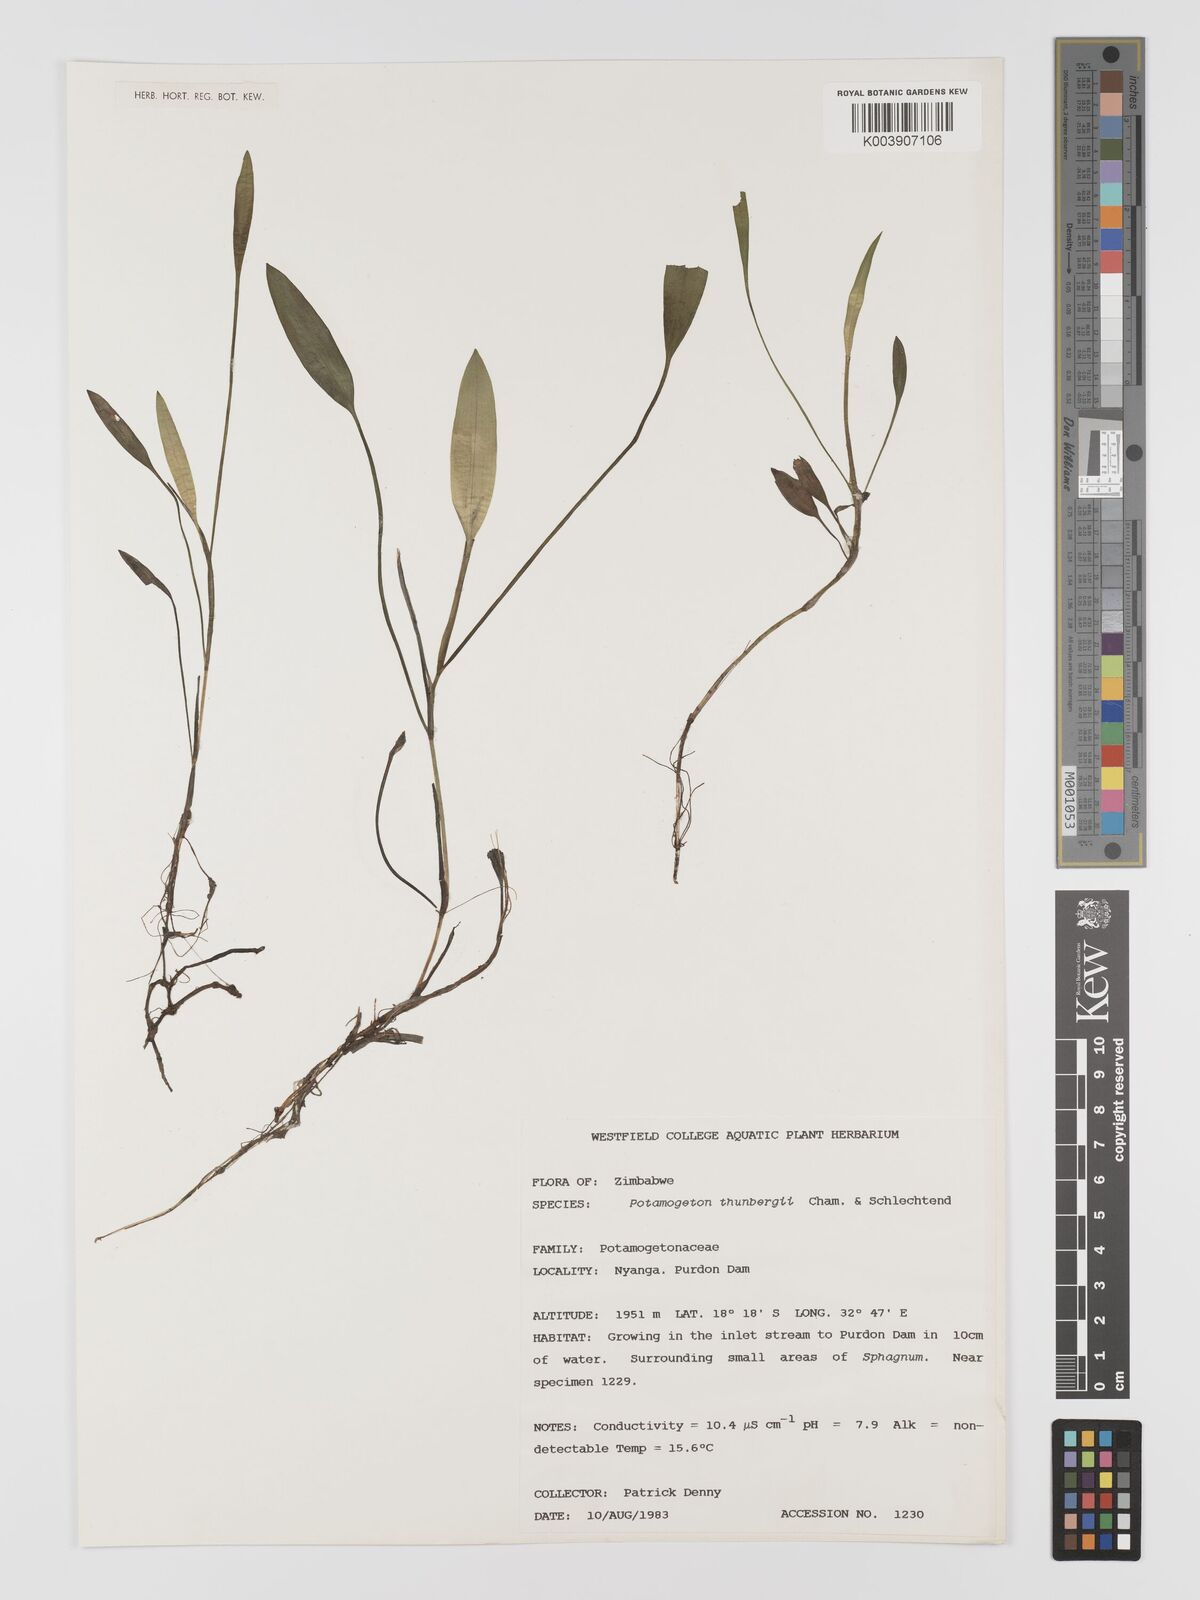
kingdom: Plantae
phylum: Tracheophyta
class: Liliopsida
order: Alismatales
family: Potamogetonaceae
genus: Potamogeton
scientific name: Potamogeton nodosus
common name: Loddon pondweed
